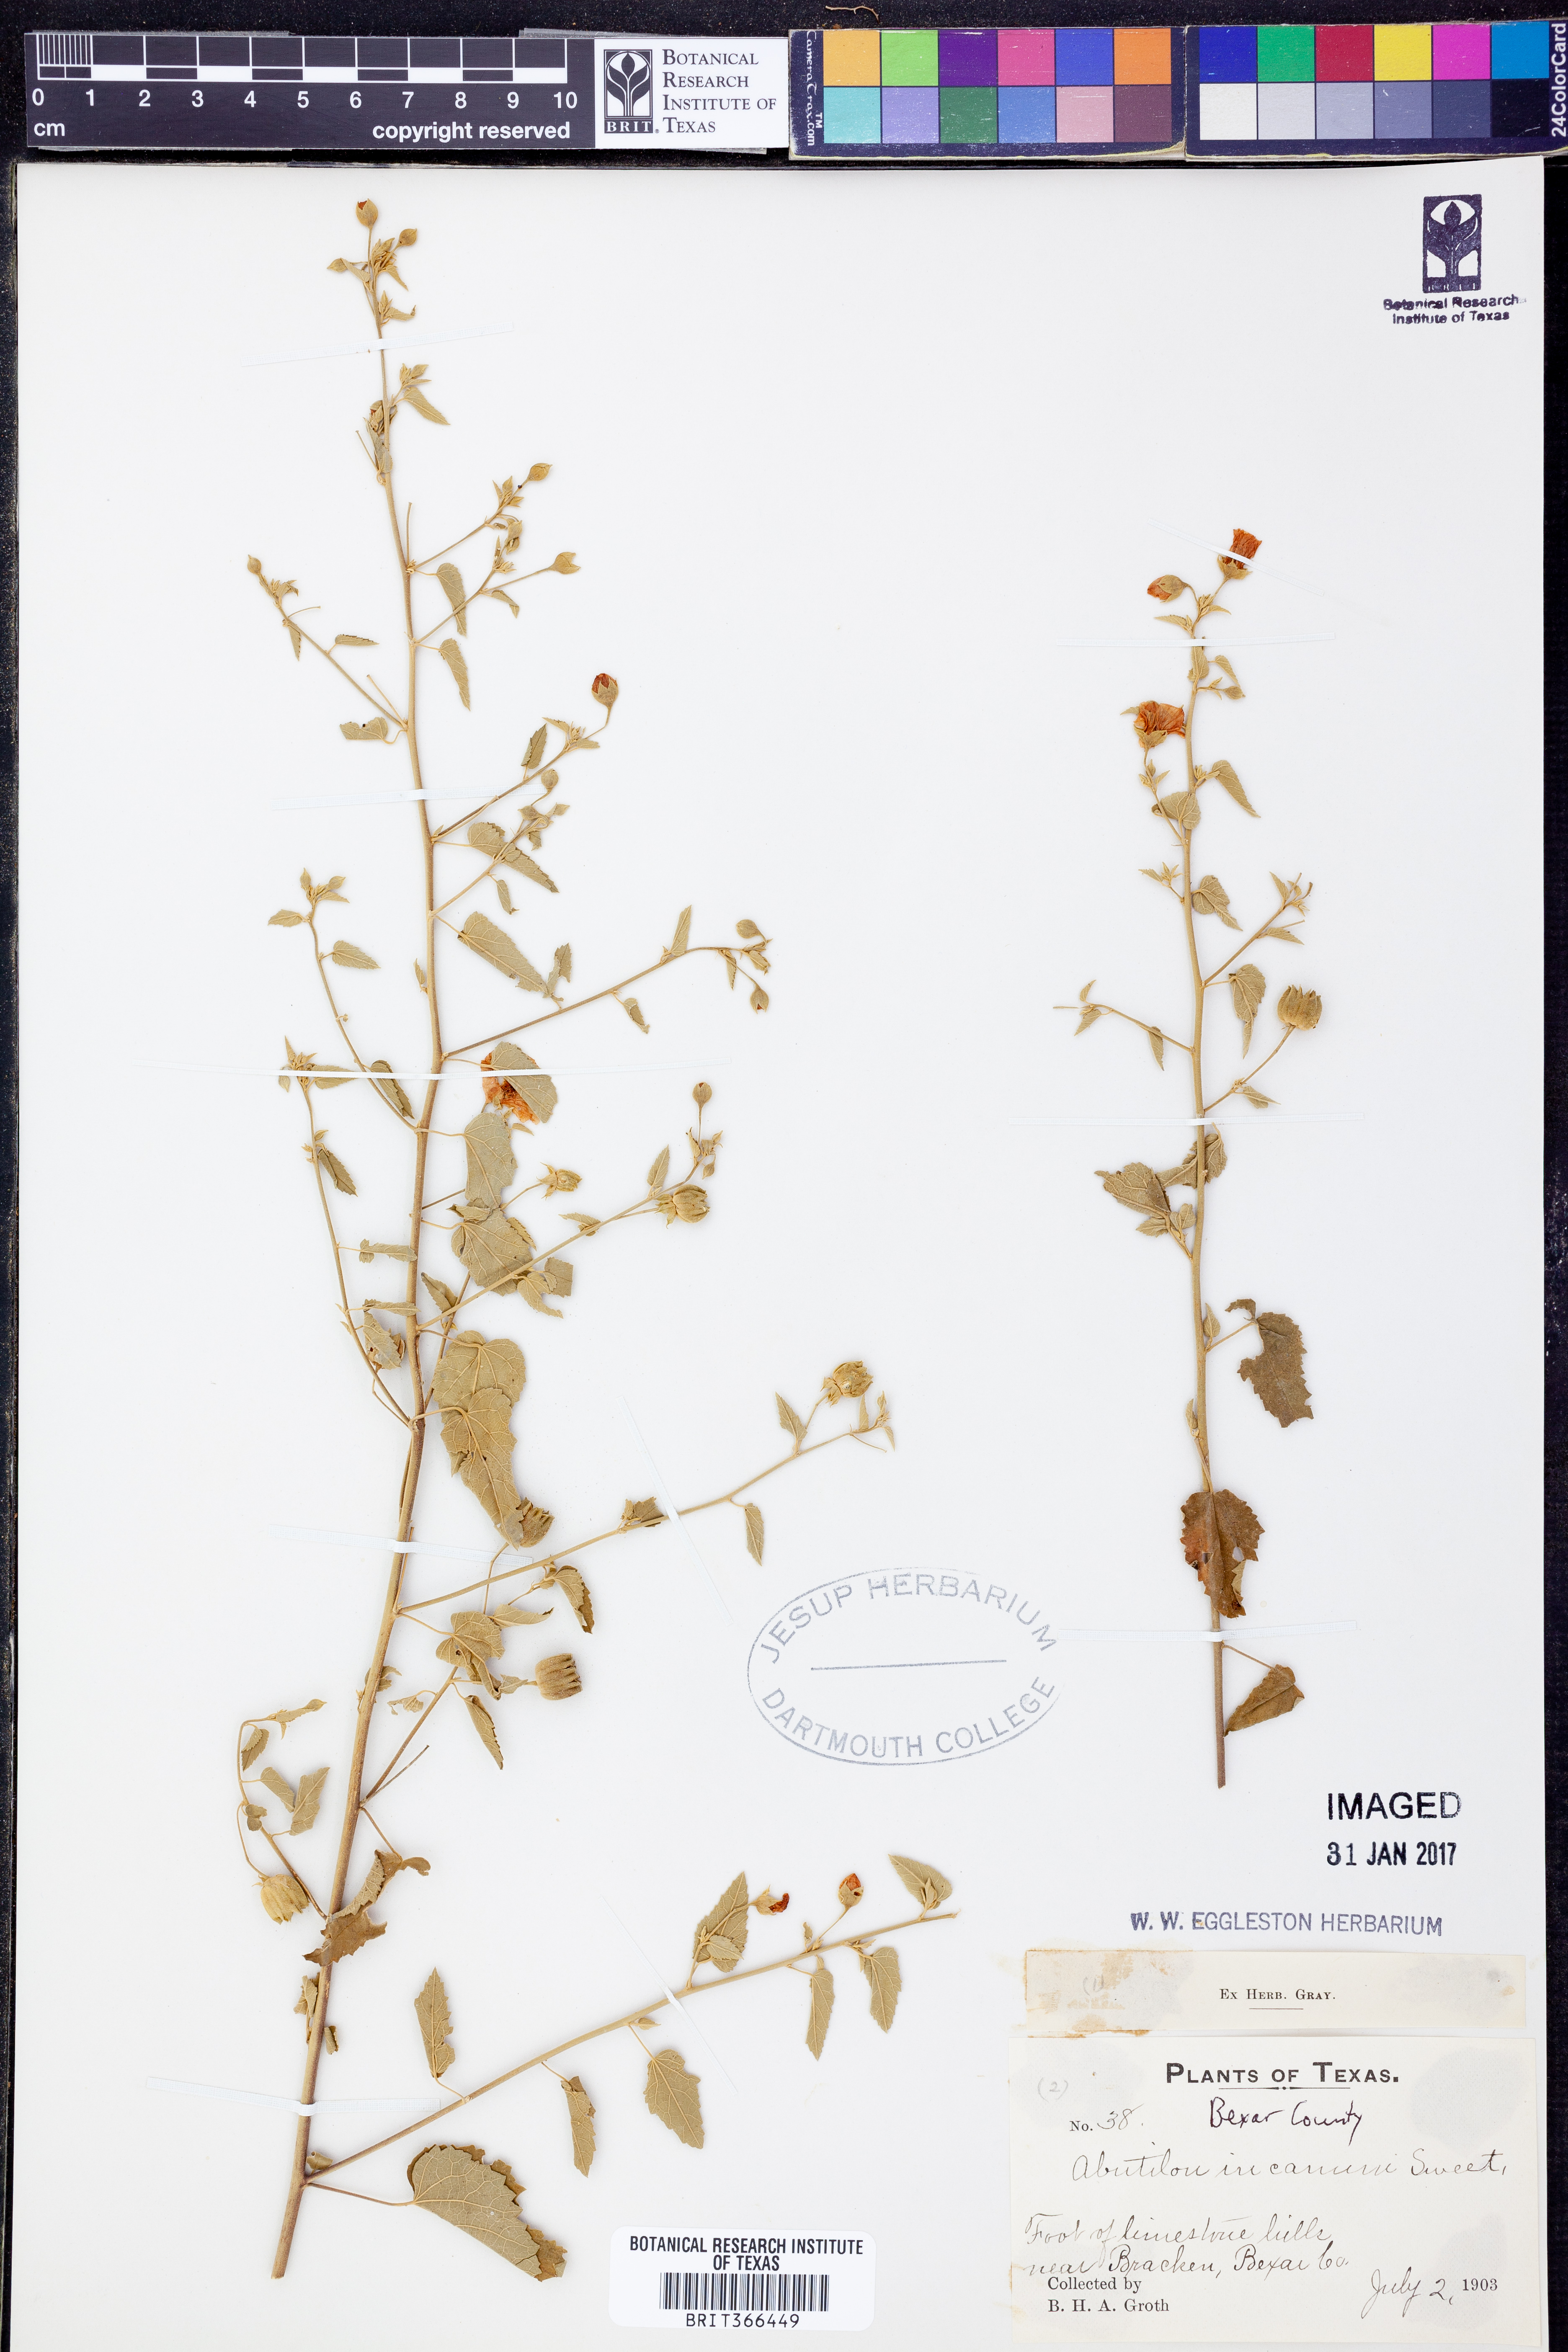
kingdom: Plantae
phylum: Tracheophyta
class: Magnoliopsida
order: Malvales
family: Malvaceae
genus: Abutilon
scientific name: Abutilon incanum
